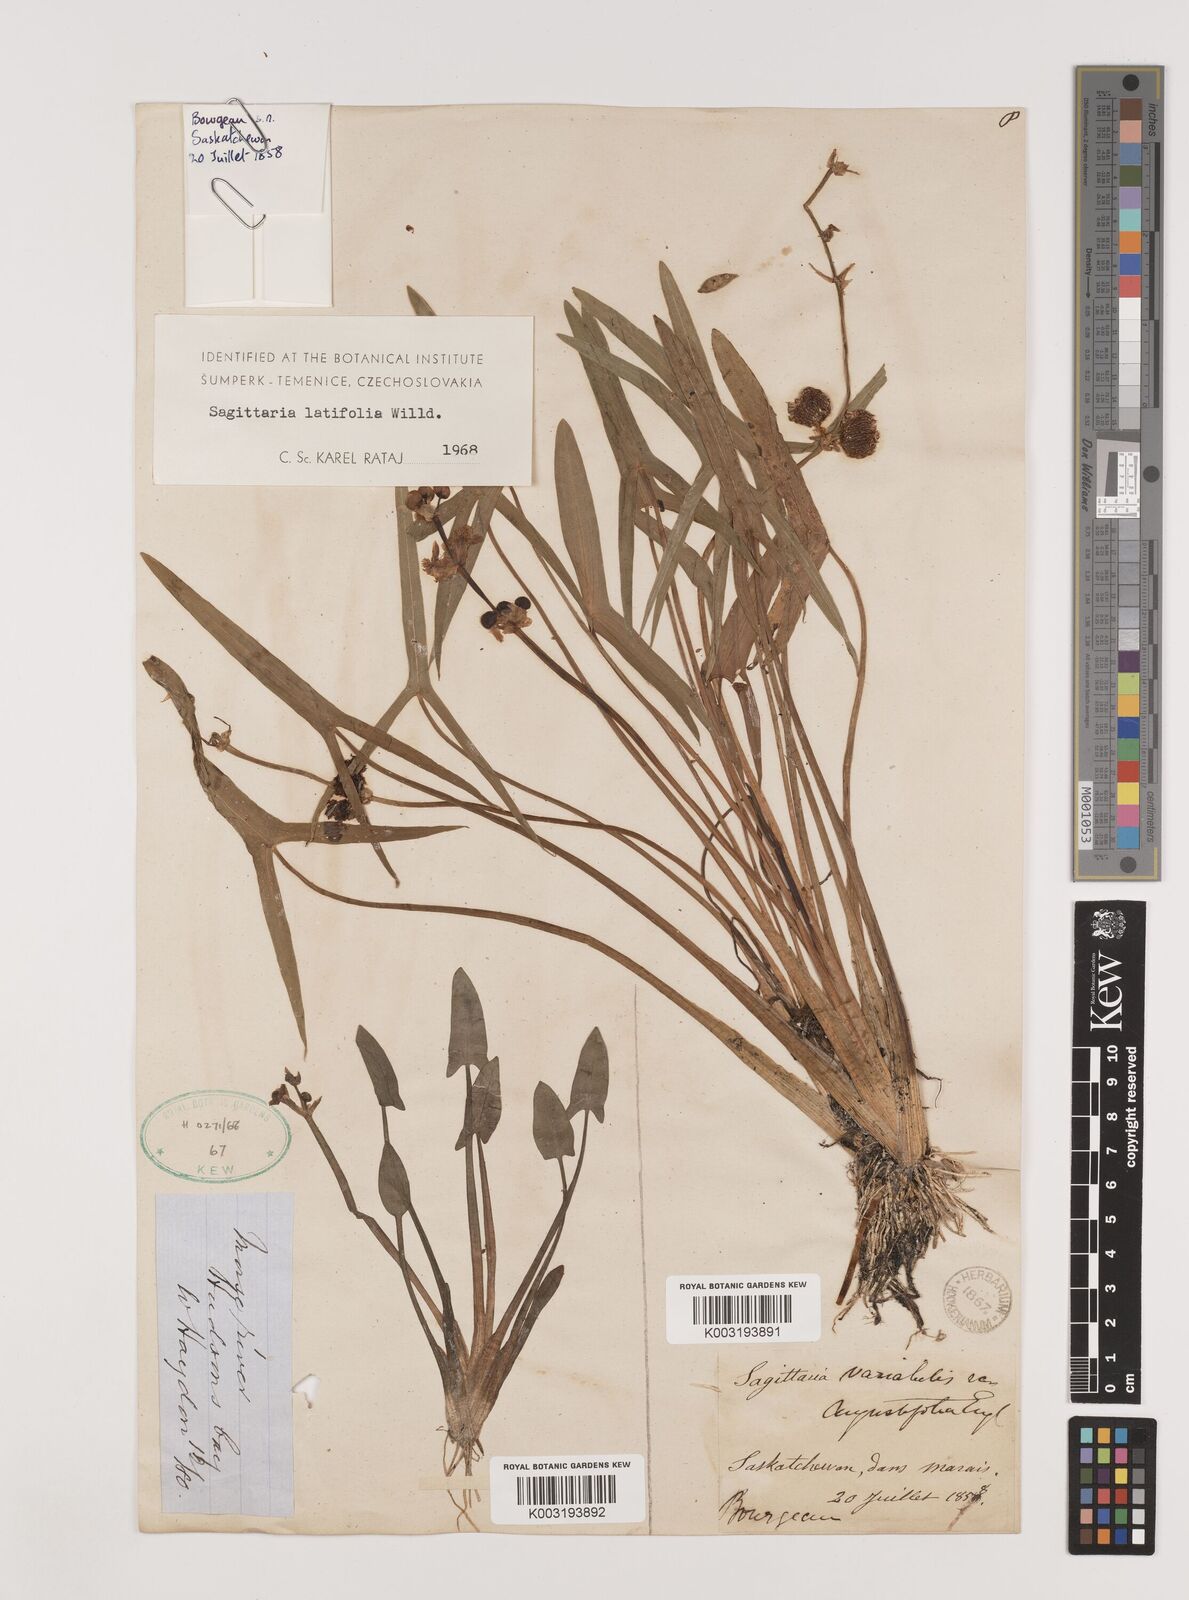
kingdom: Plantae
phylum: Tracheophyta
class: Liliopsida
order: Alismatales
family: Alismataceae
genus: Sagittaria
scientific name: Sagittaria latifolia
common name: Duck-potato
